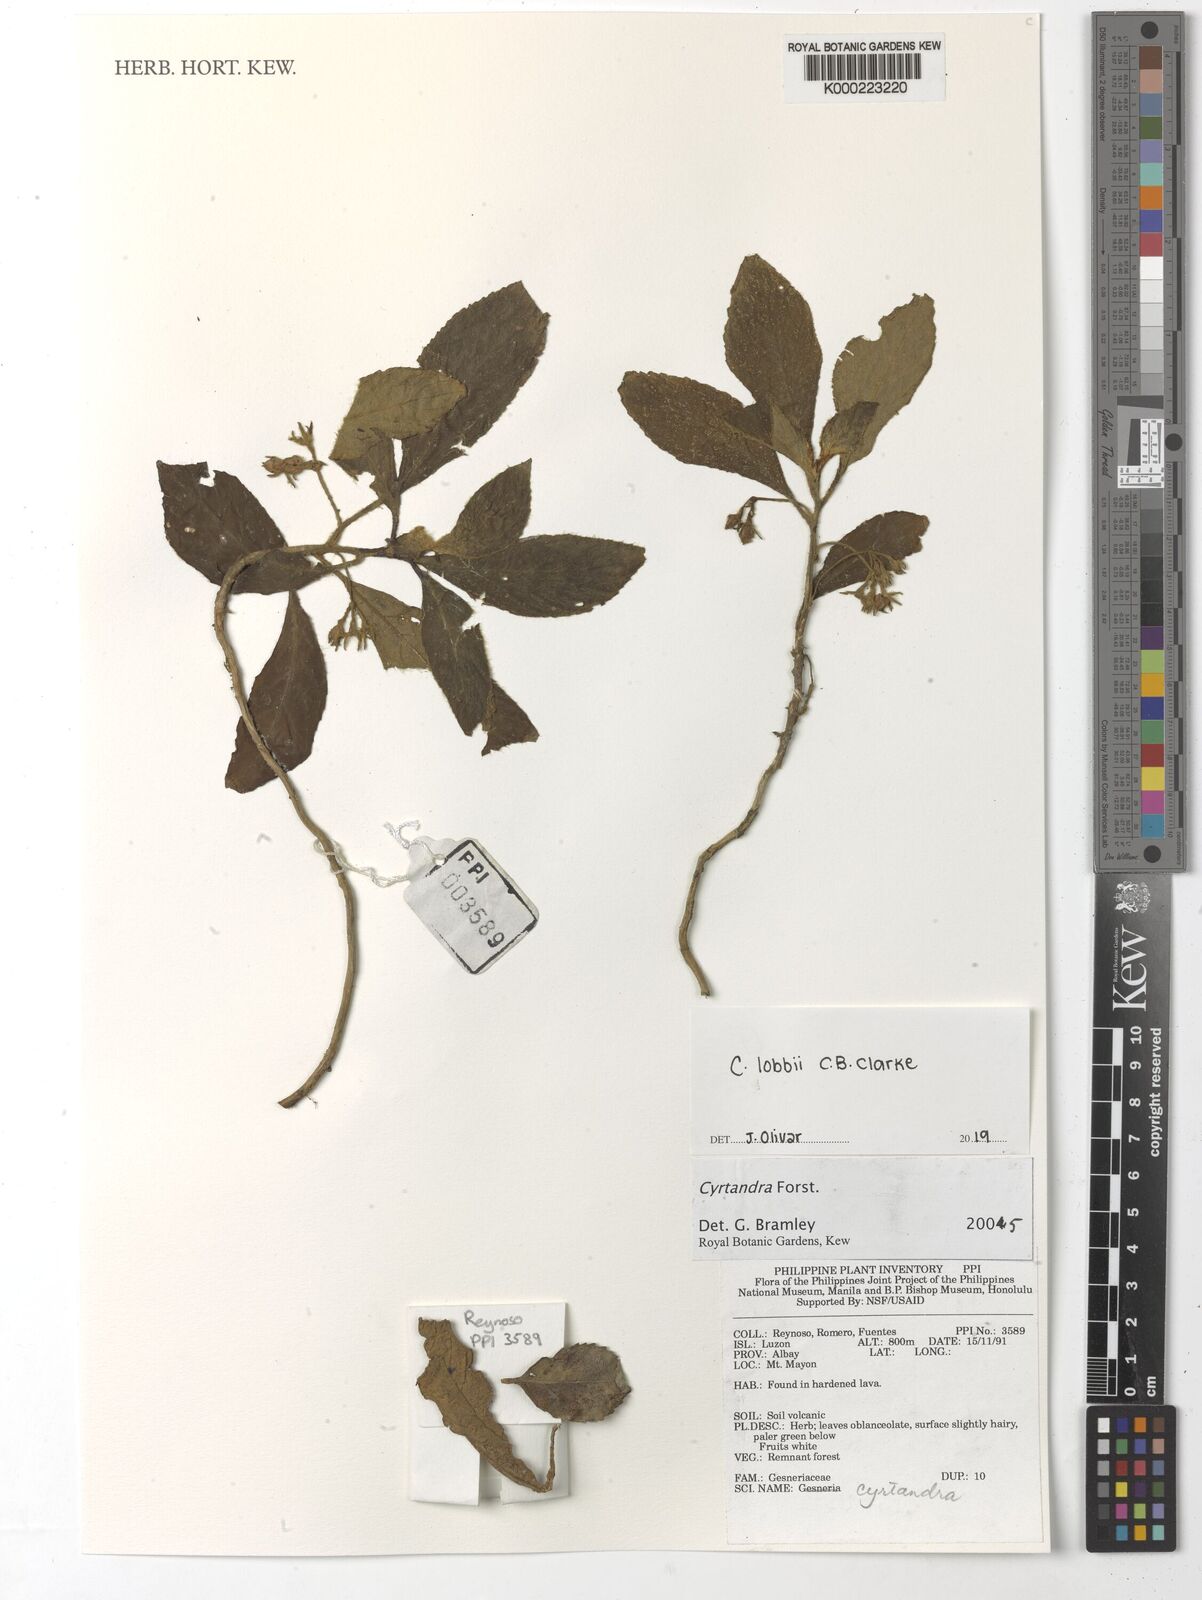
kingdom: Plantae
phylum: Tracheophyta
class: Magnoliopsida
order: Lamiales
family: Gesneriaceae
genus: Cyrtandra
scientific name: Cyrtandra
